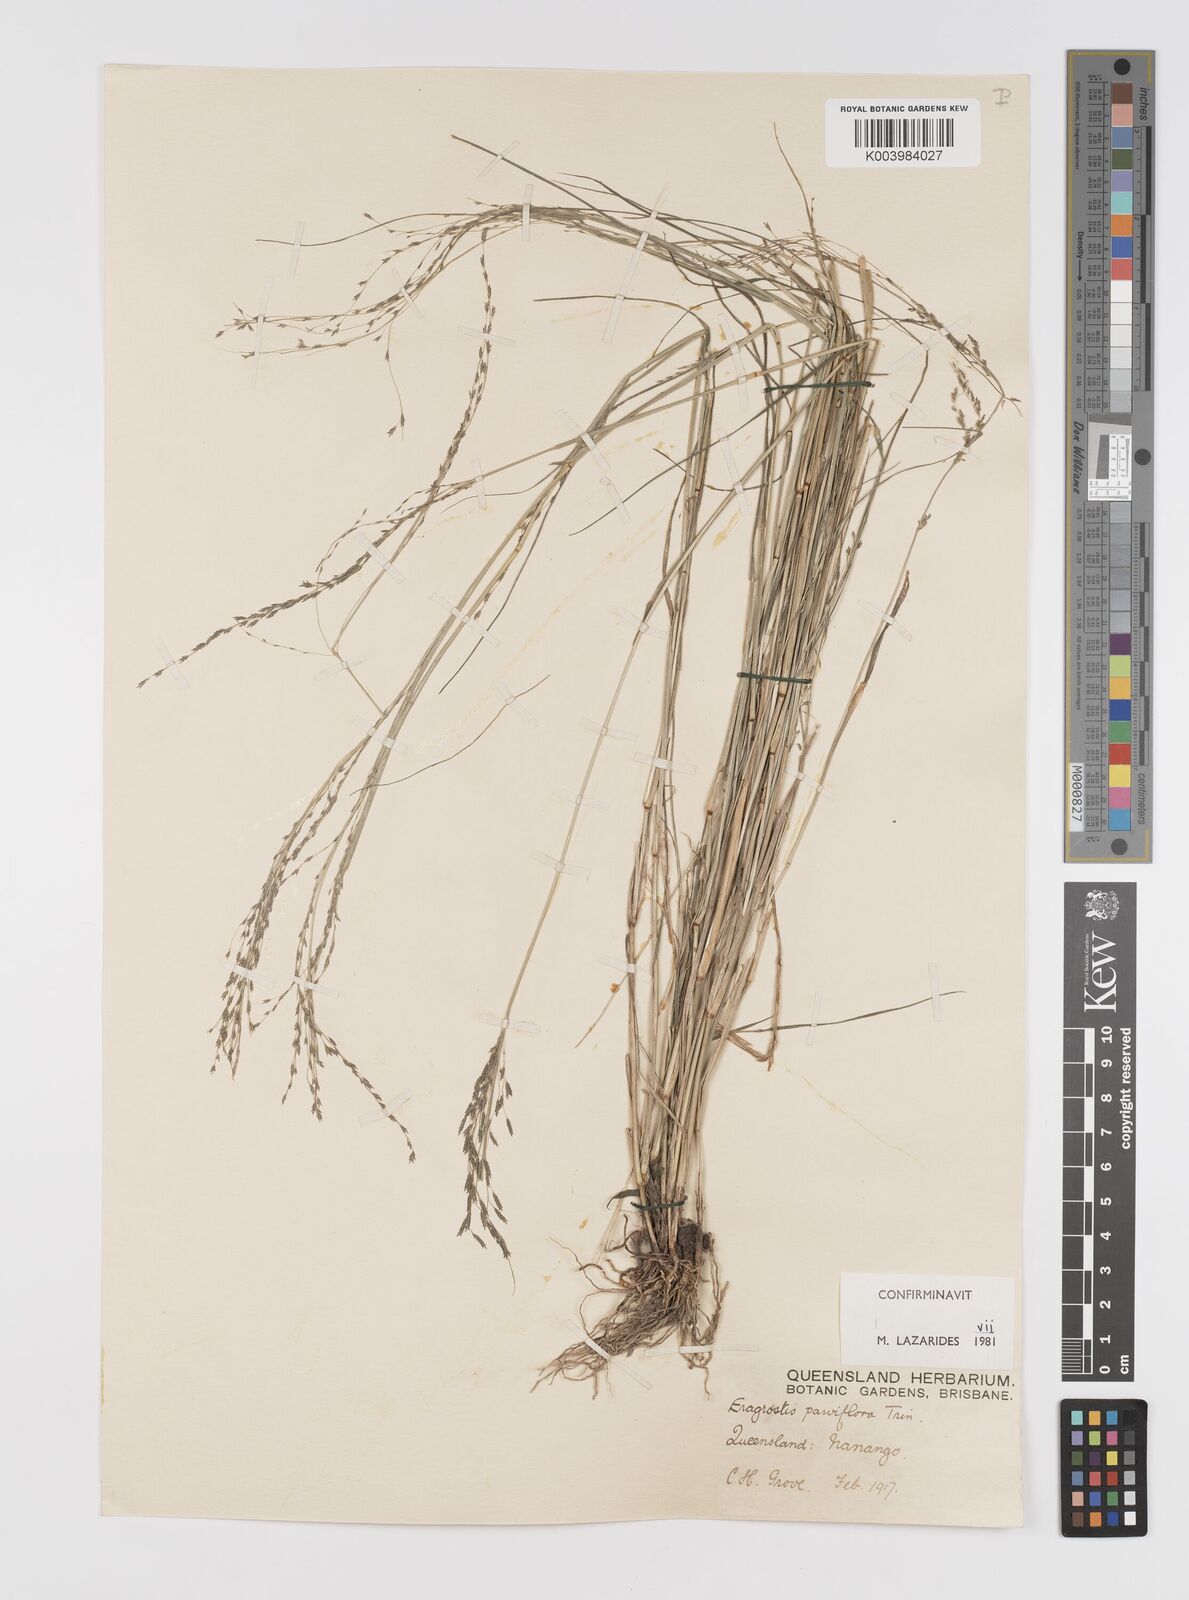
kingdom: Plantae
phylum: Tracheophyta
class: Liliopsida
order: Poales
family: Poaceae
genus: Eragrostis
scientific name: Eragrostis parviflora
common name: Weeping love-grass
